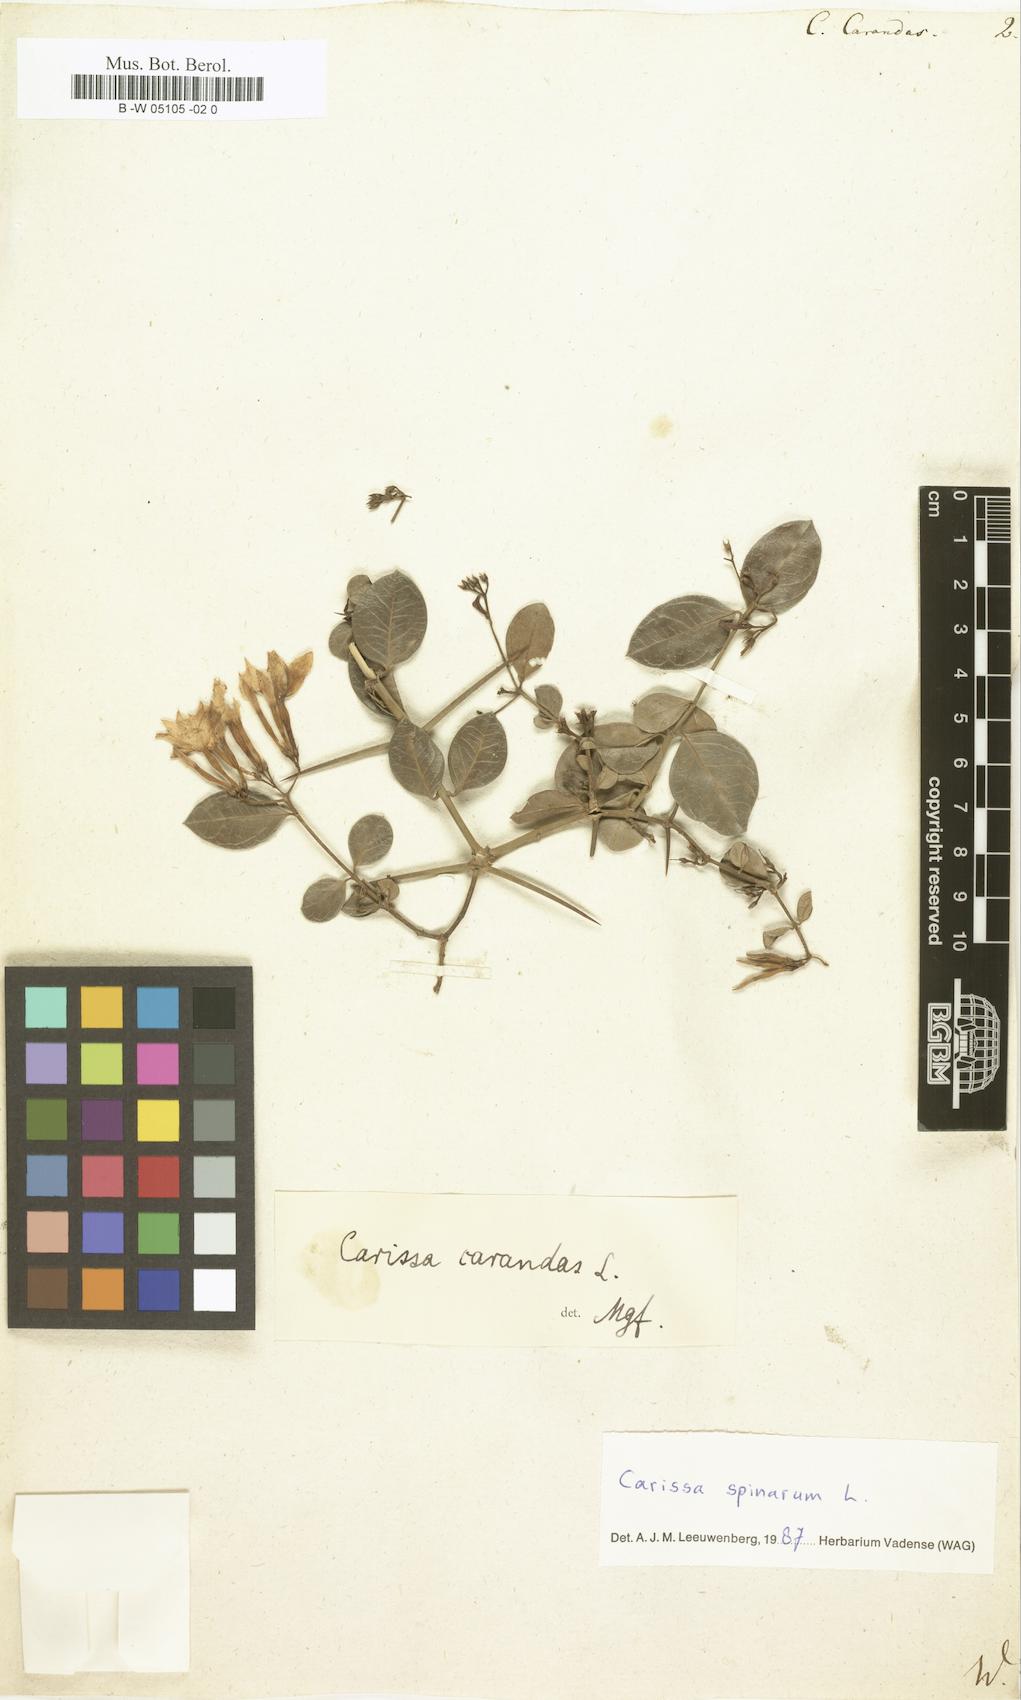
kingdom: Plantae
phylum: Tracheophyta
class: Magnoliopsida
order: Gentianales
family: Apocynaceae
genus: Carissa
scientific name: Carissa carandas
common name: Karanda
